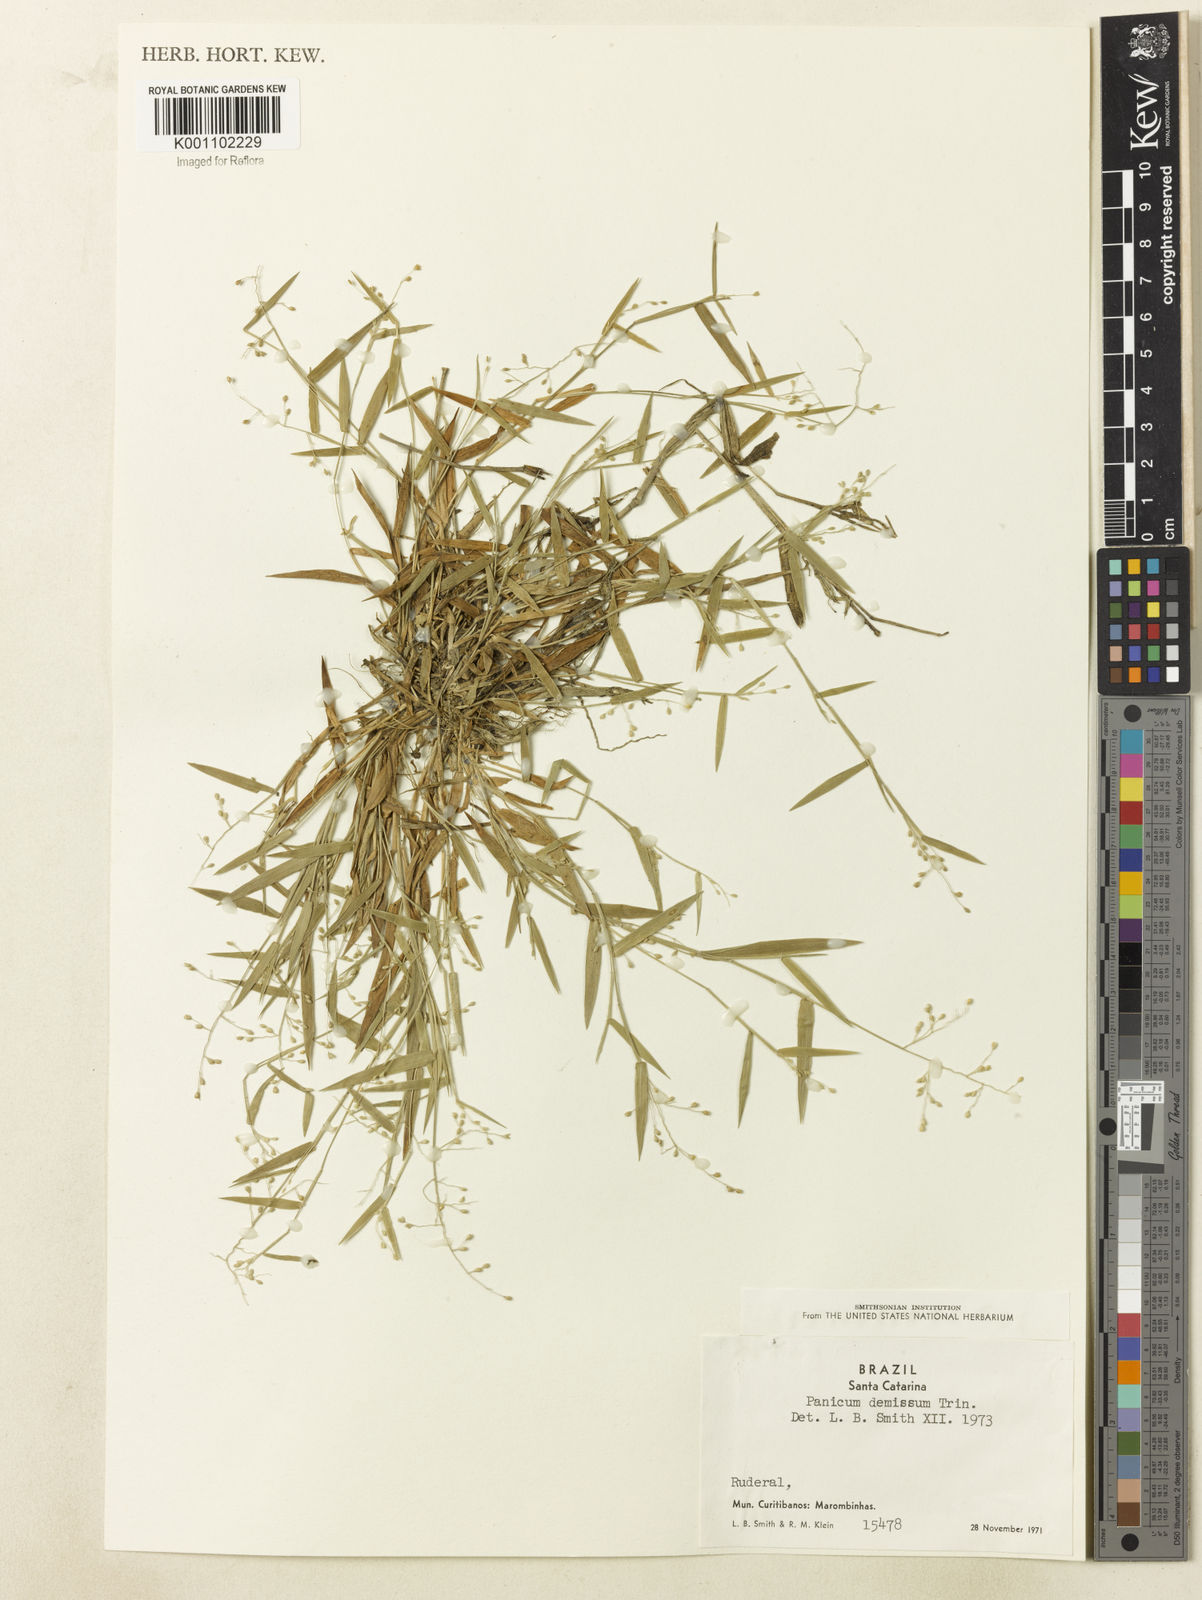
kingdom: Plantae
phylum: Tracheophyta
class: Liliopsida
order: Poales
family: Poaceae
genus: Dichanthelium
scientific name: Dichanthelium sabulorum
